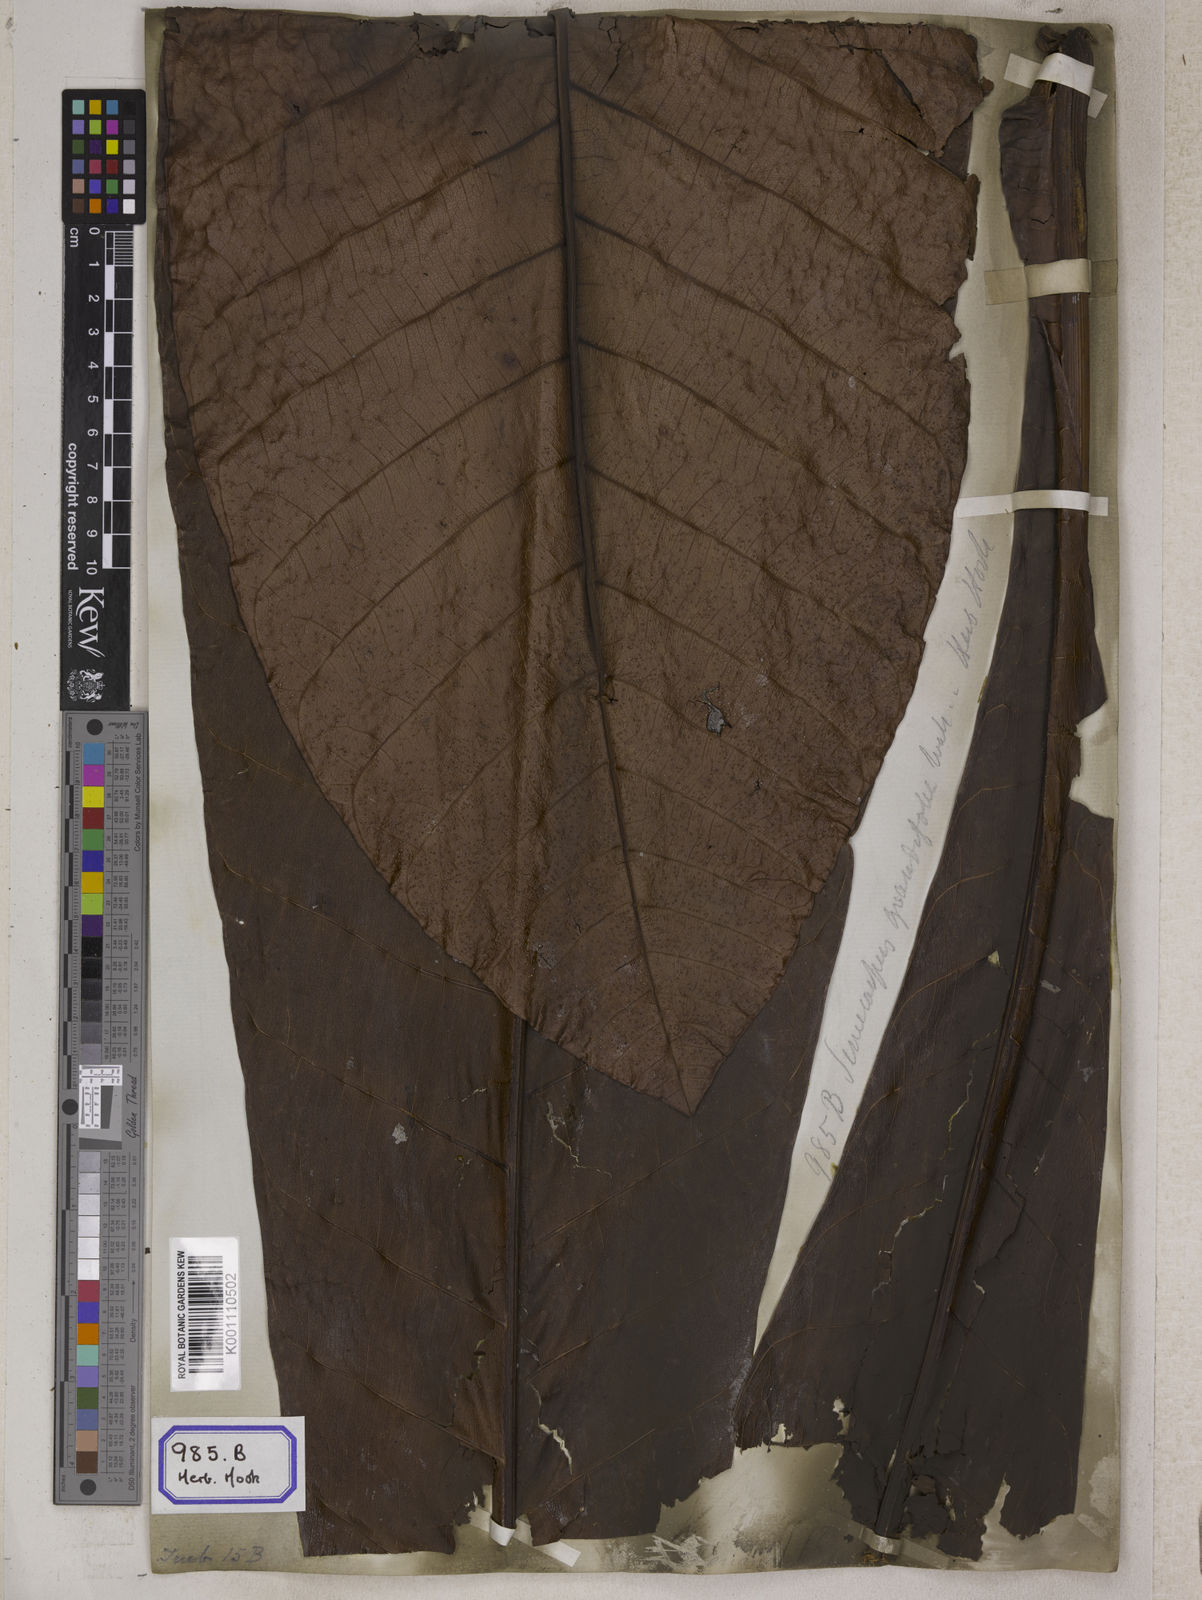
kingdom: Plantae
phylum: Tracheophyta
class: Magnoliopsida
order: Sapindales
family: Anacardiaceae
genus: Semecarpus
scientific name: Semecarpus
